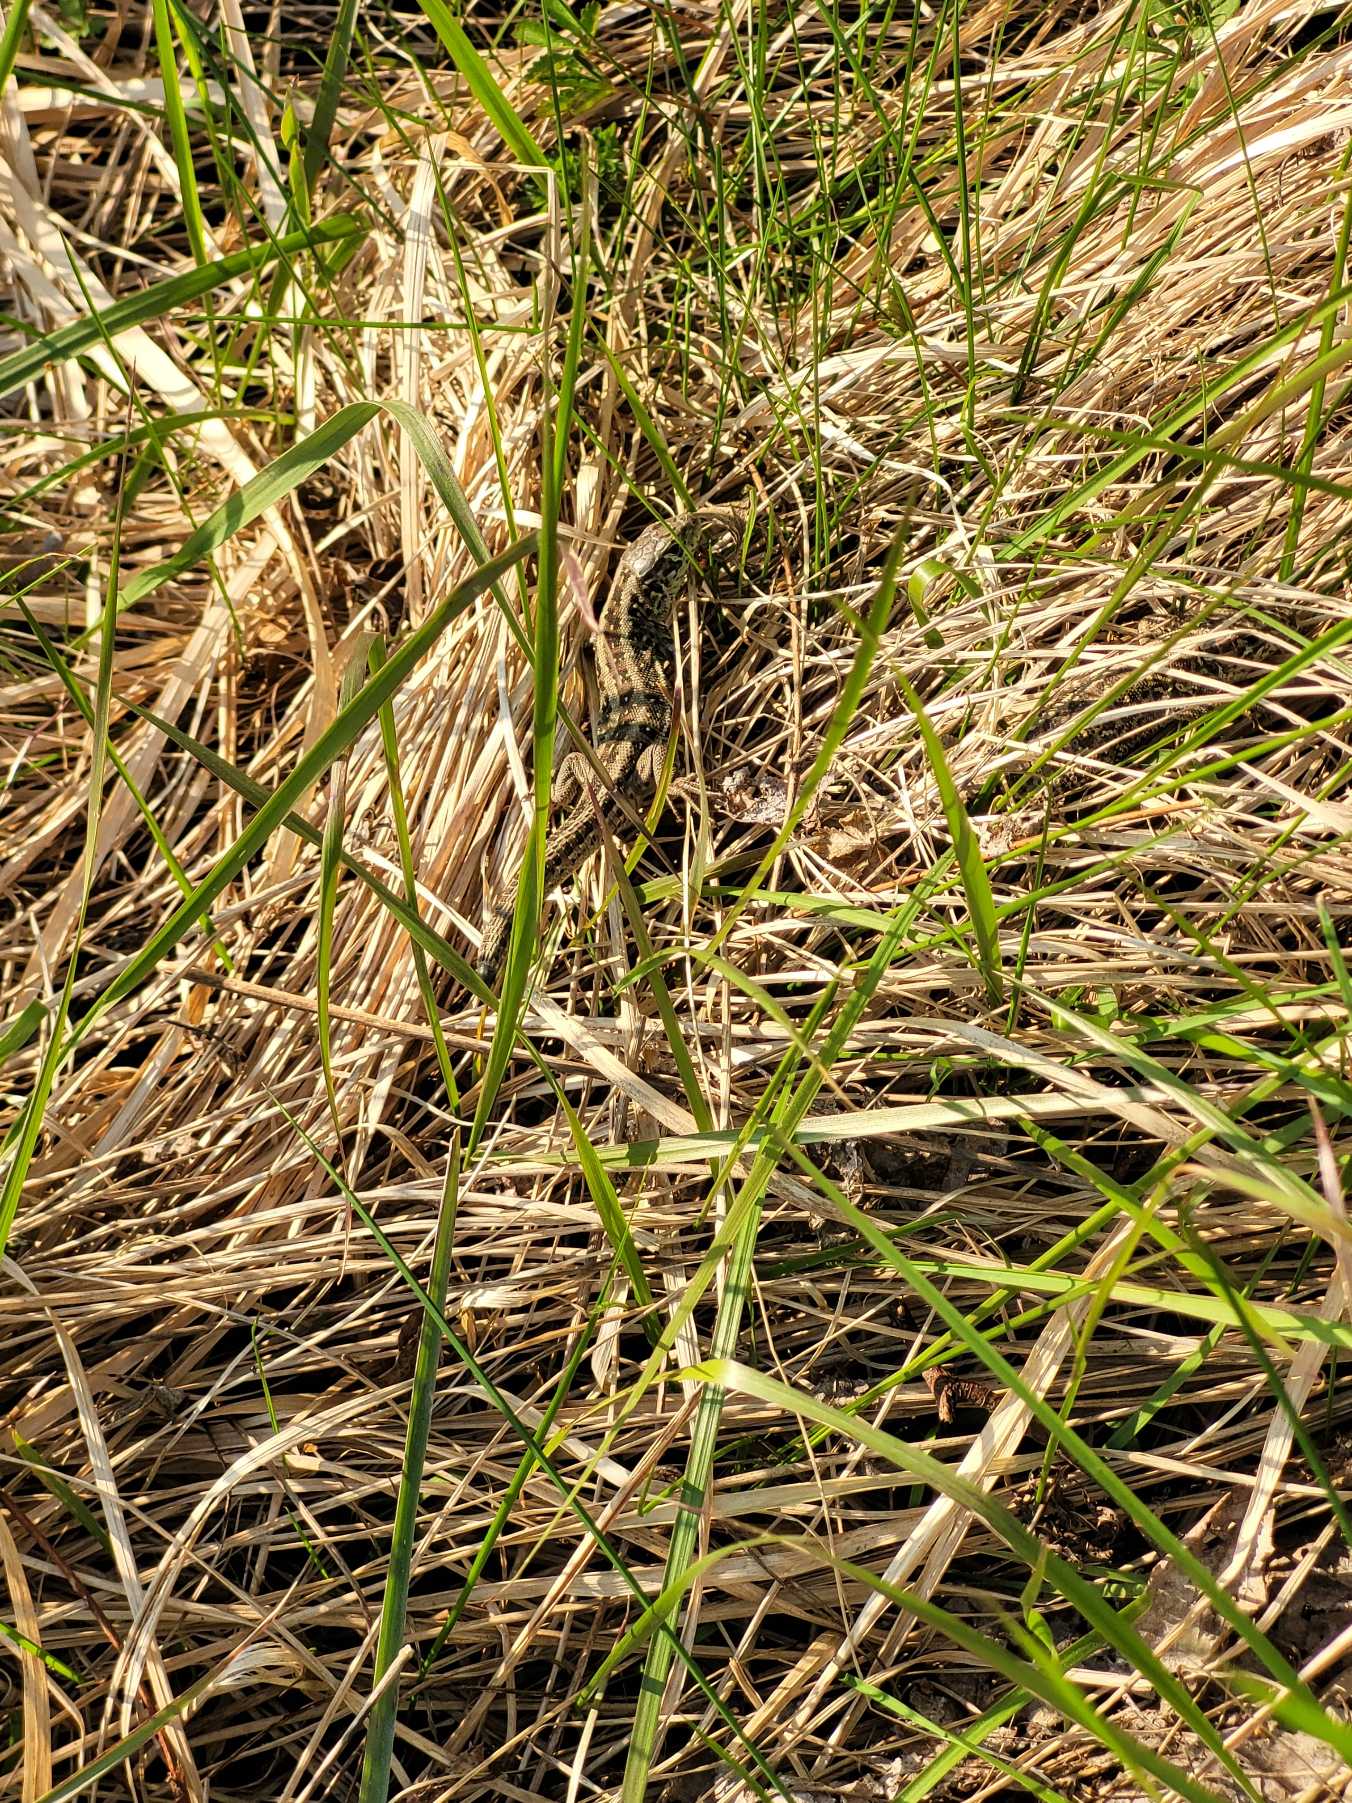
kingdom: Animalia
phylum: Chordata
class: Squamata
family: Lacertidae
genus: Lacerta
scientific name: Lacerta agilis
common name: Markfirben
